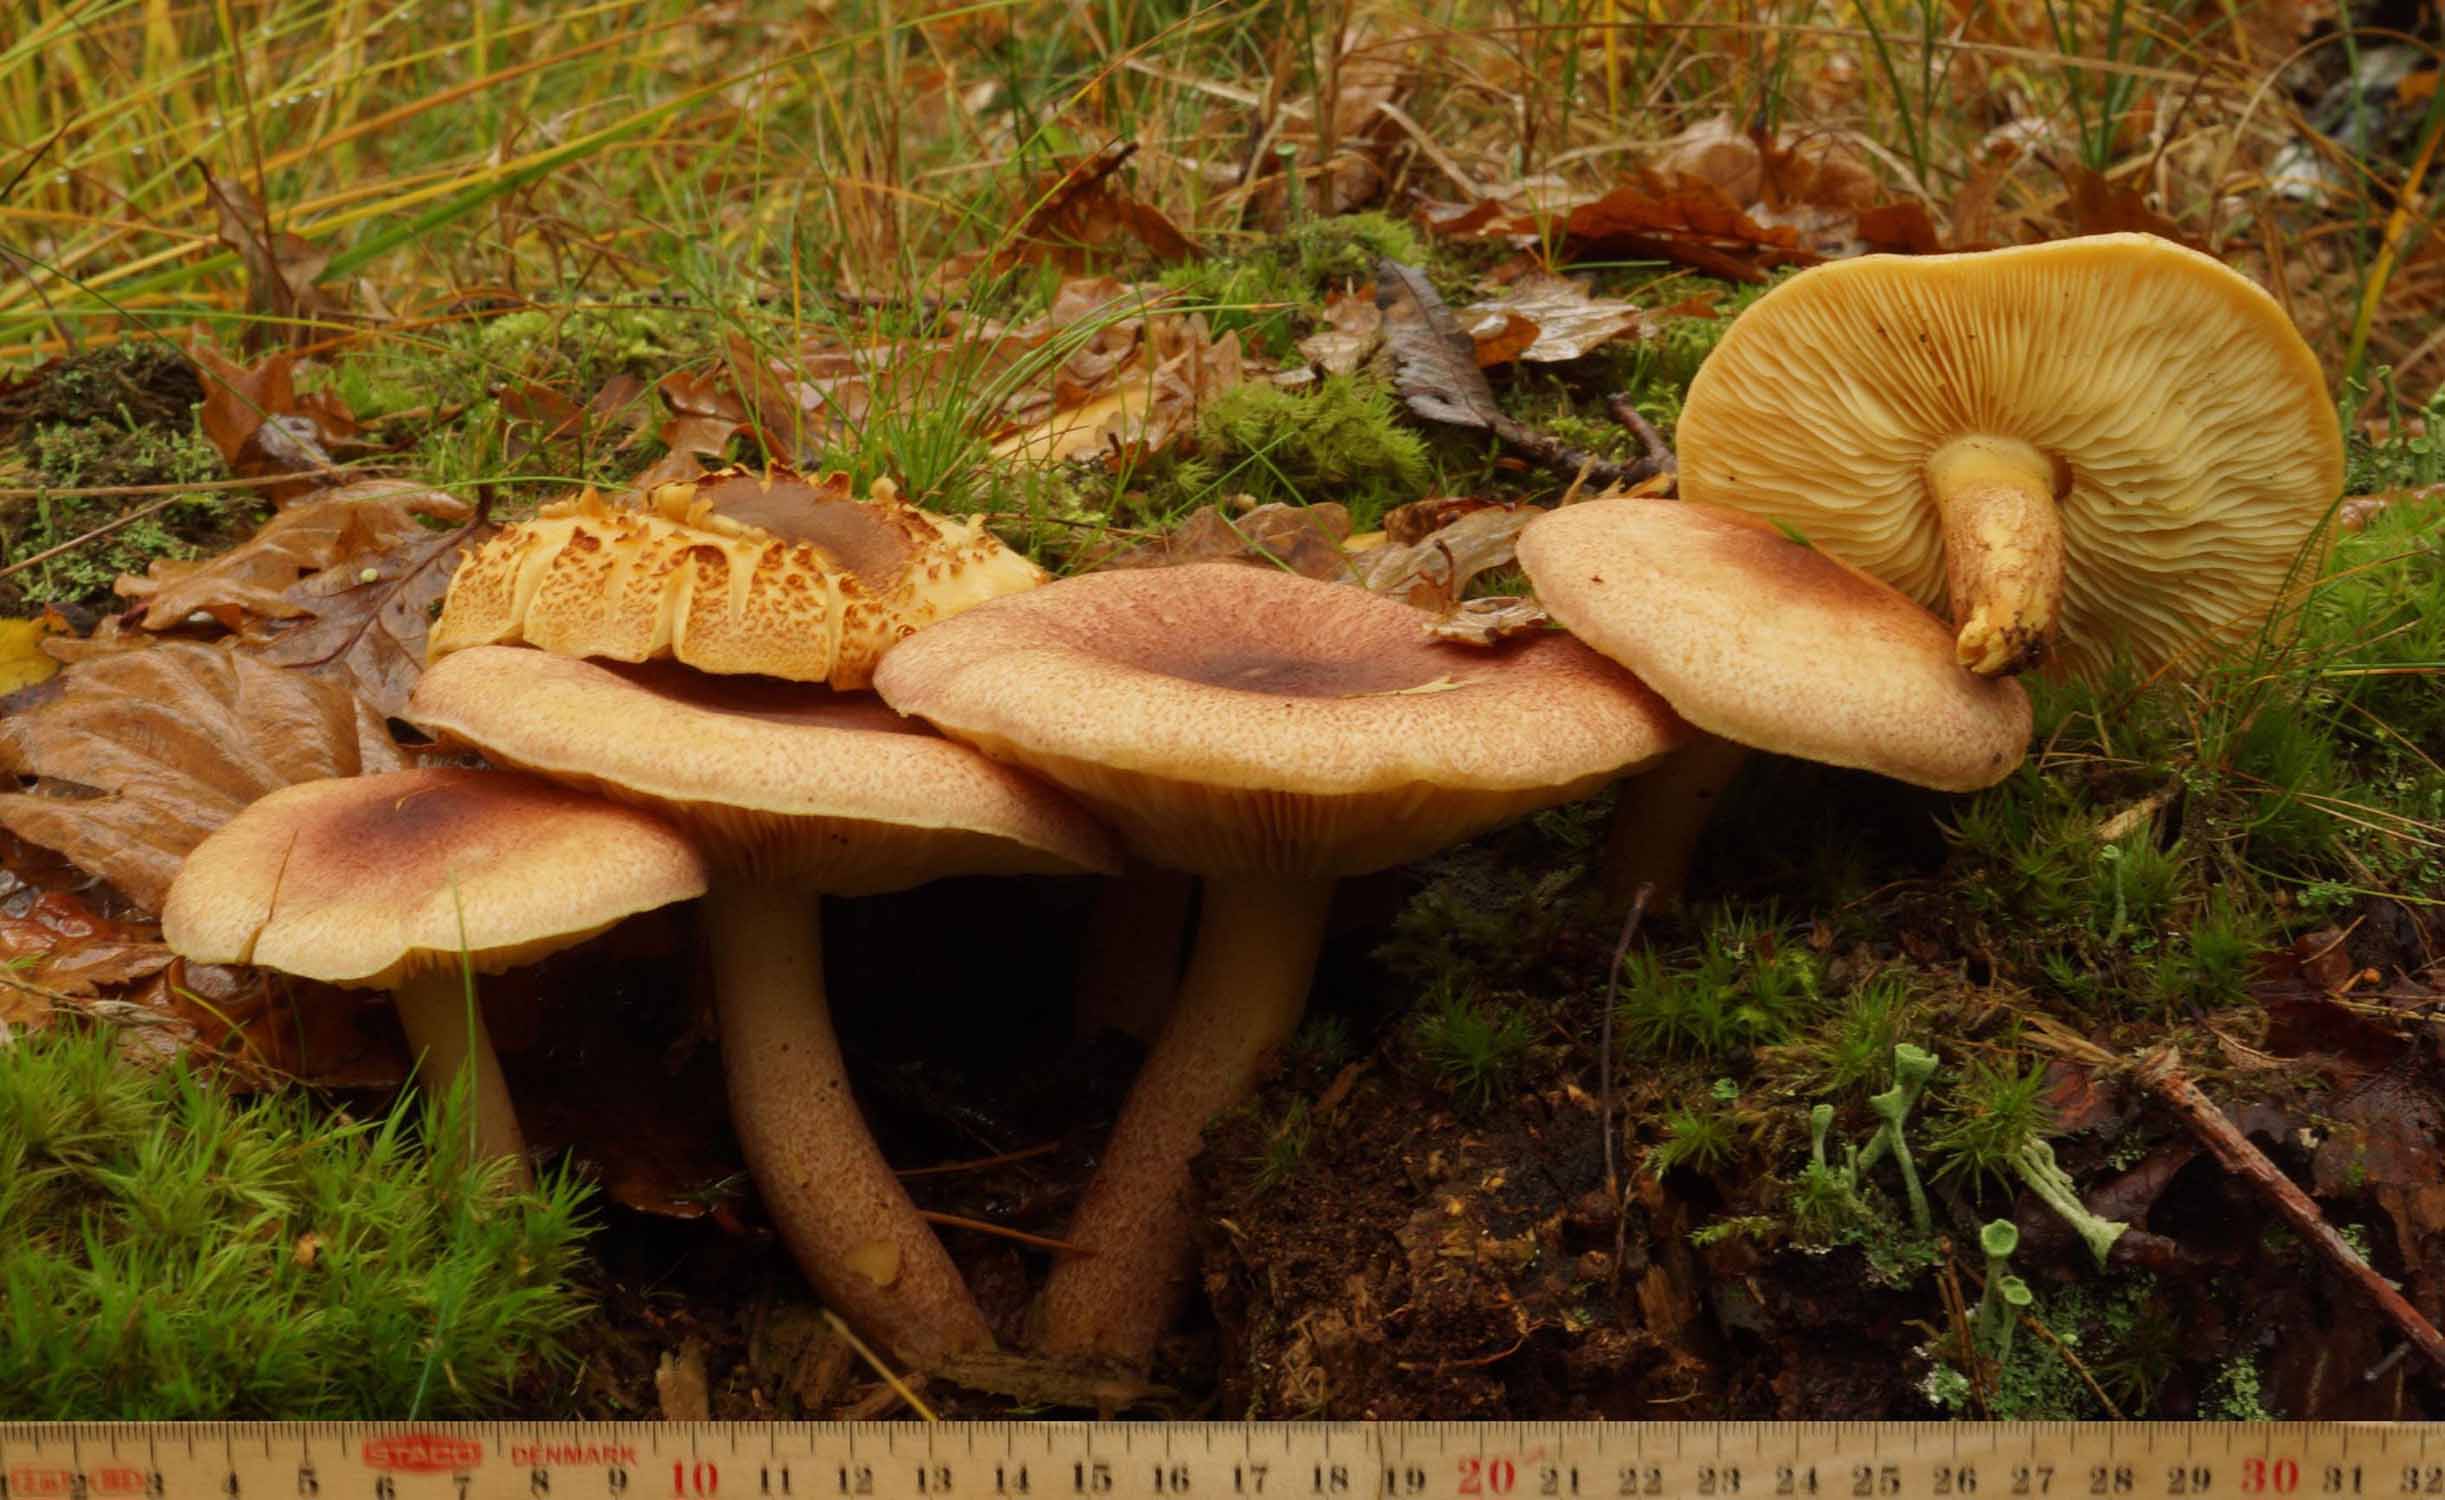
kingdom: Fungi
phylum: Basidiomycota
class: Agaricomycetes
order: Agaricales
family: Tricholomataceae
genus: Tricholomopsis
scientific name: Tricholomopsis rutilans
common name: purpur-væbnerhat
